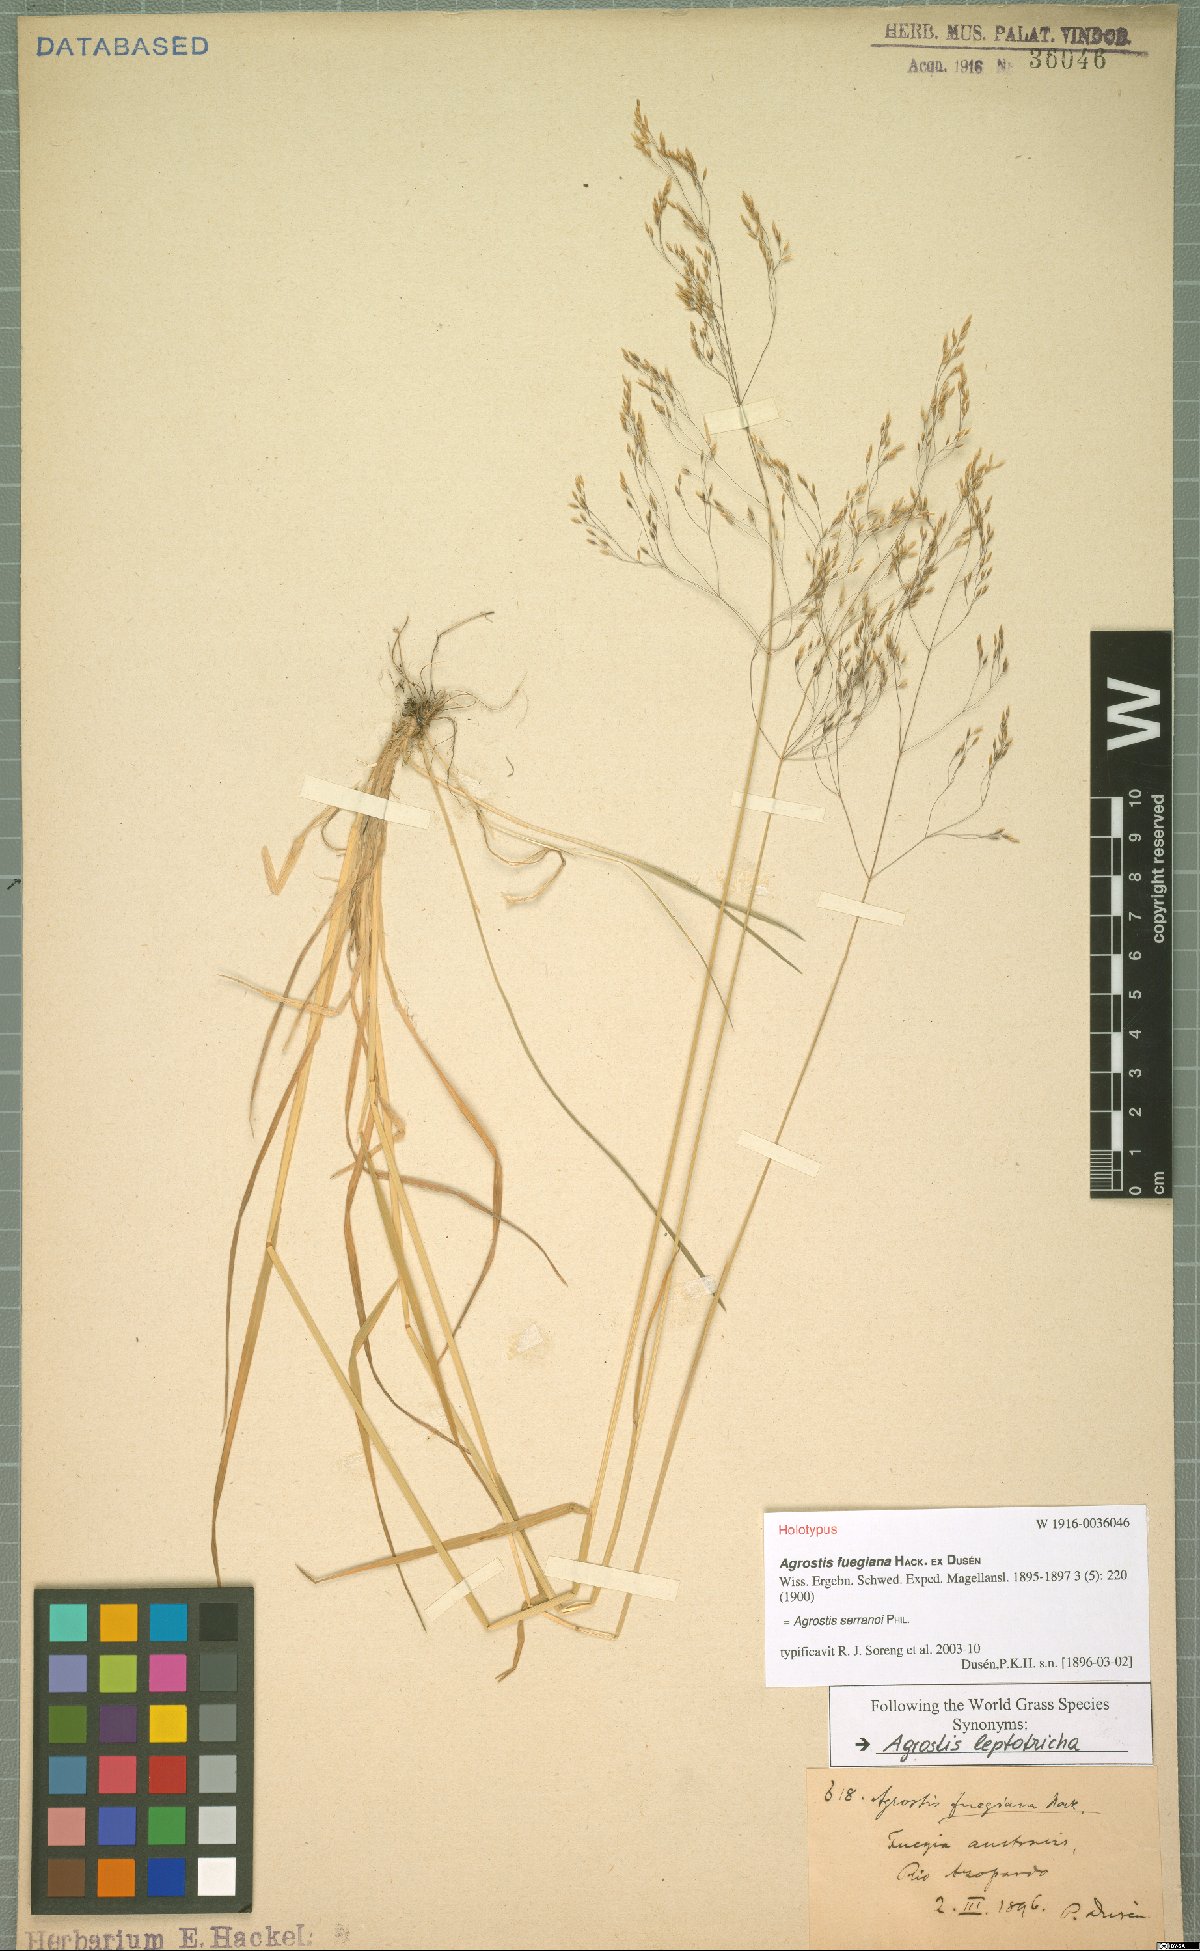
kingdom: Plantae
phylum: Tracheophyta
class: Liliopsida
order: Poales
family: Poaceae
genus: Agrostis
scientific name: Agrostis serranoi
